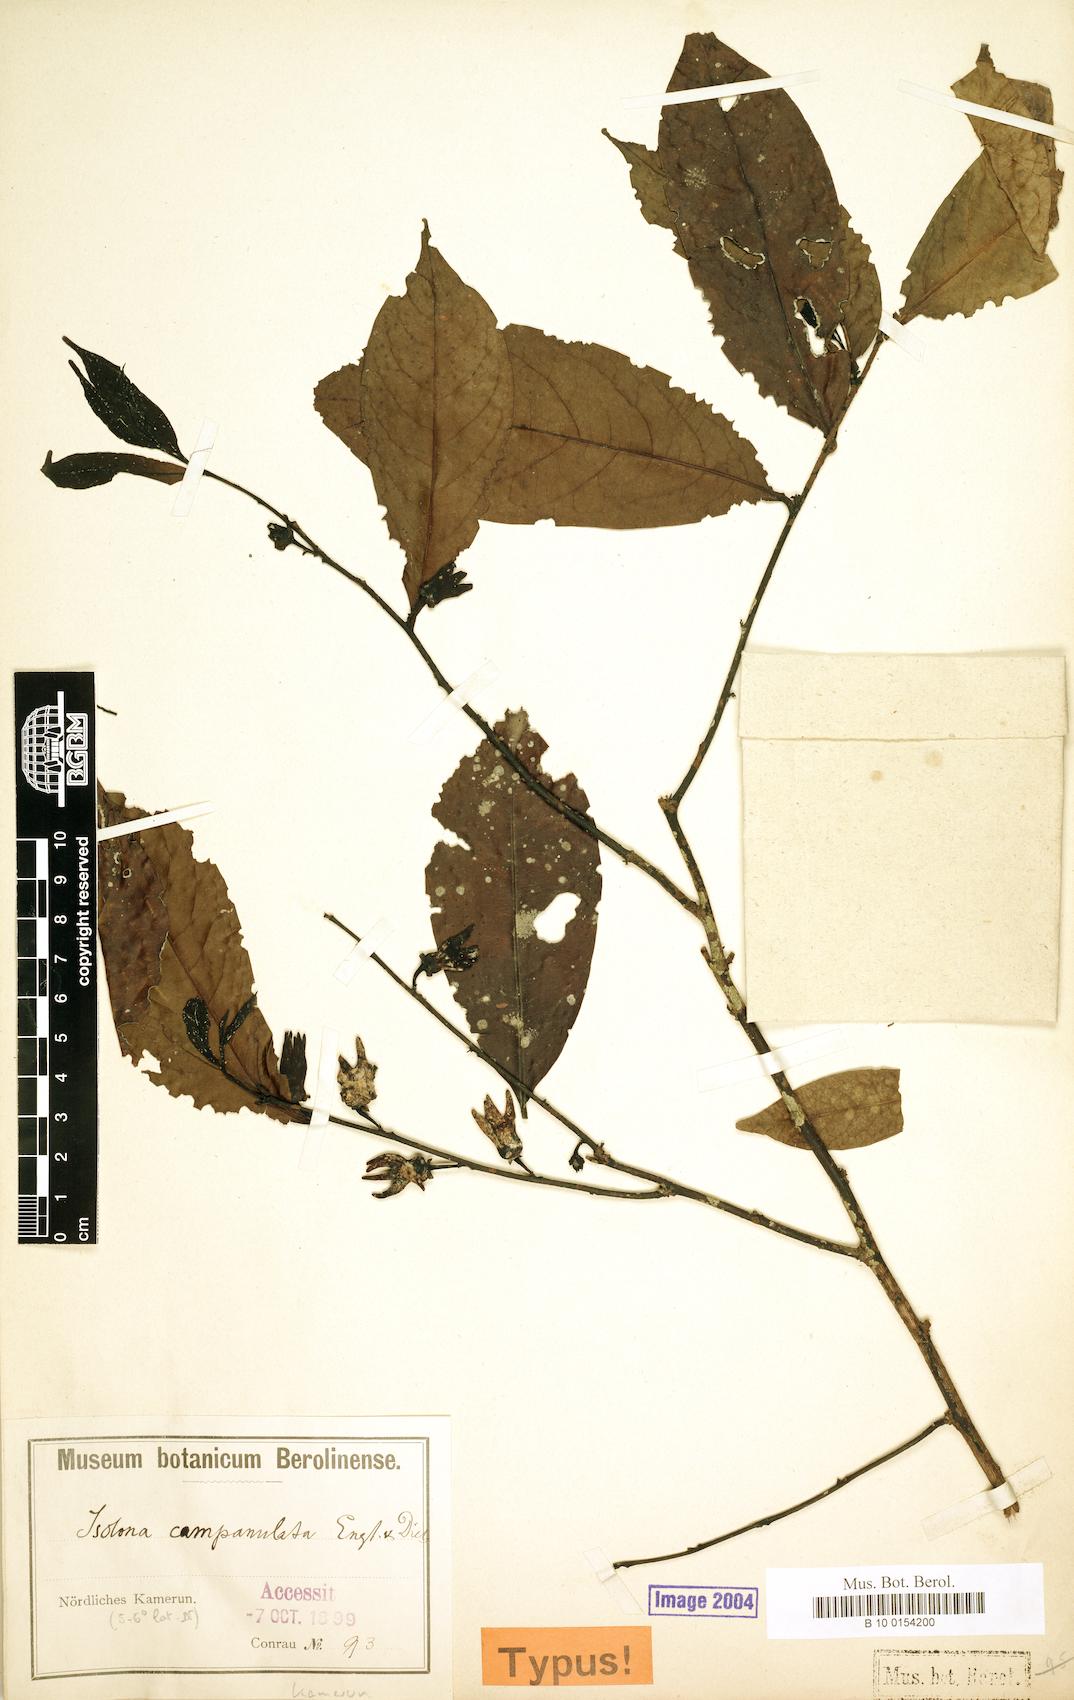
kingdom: Plantae
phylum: Tracheophyta
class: Magnoliopsida
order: Magnoliales
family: Annonaceae
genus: Isolona
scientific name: Isolona campanulata
